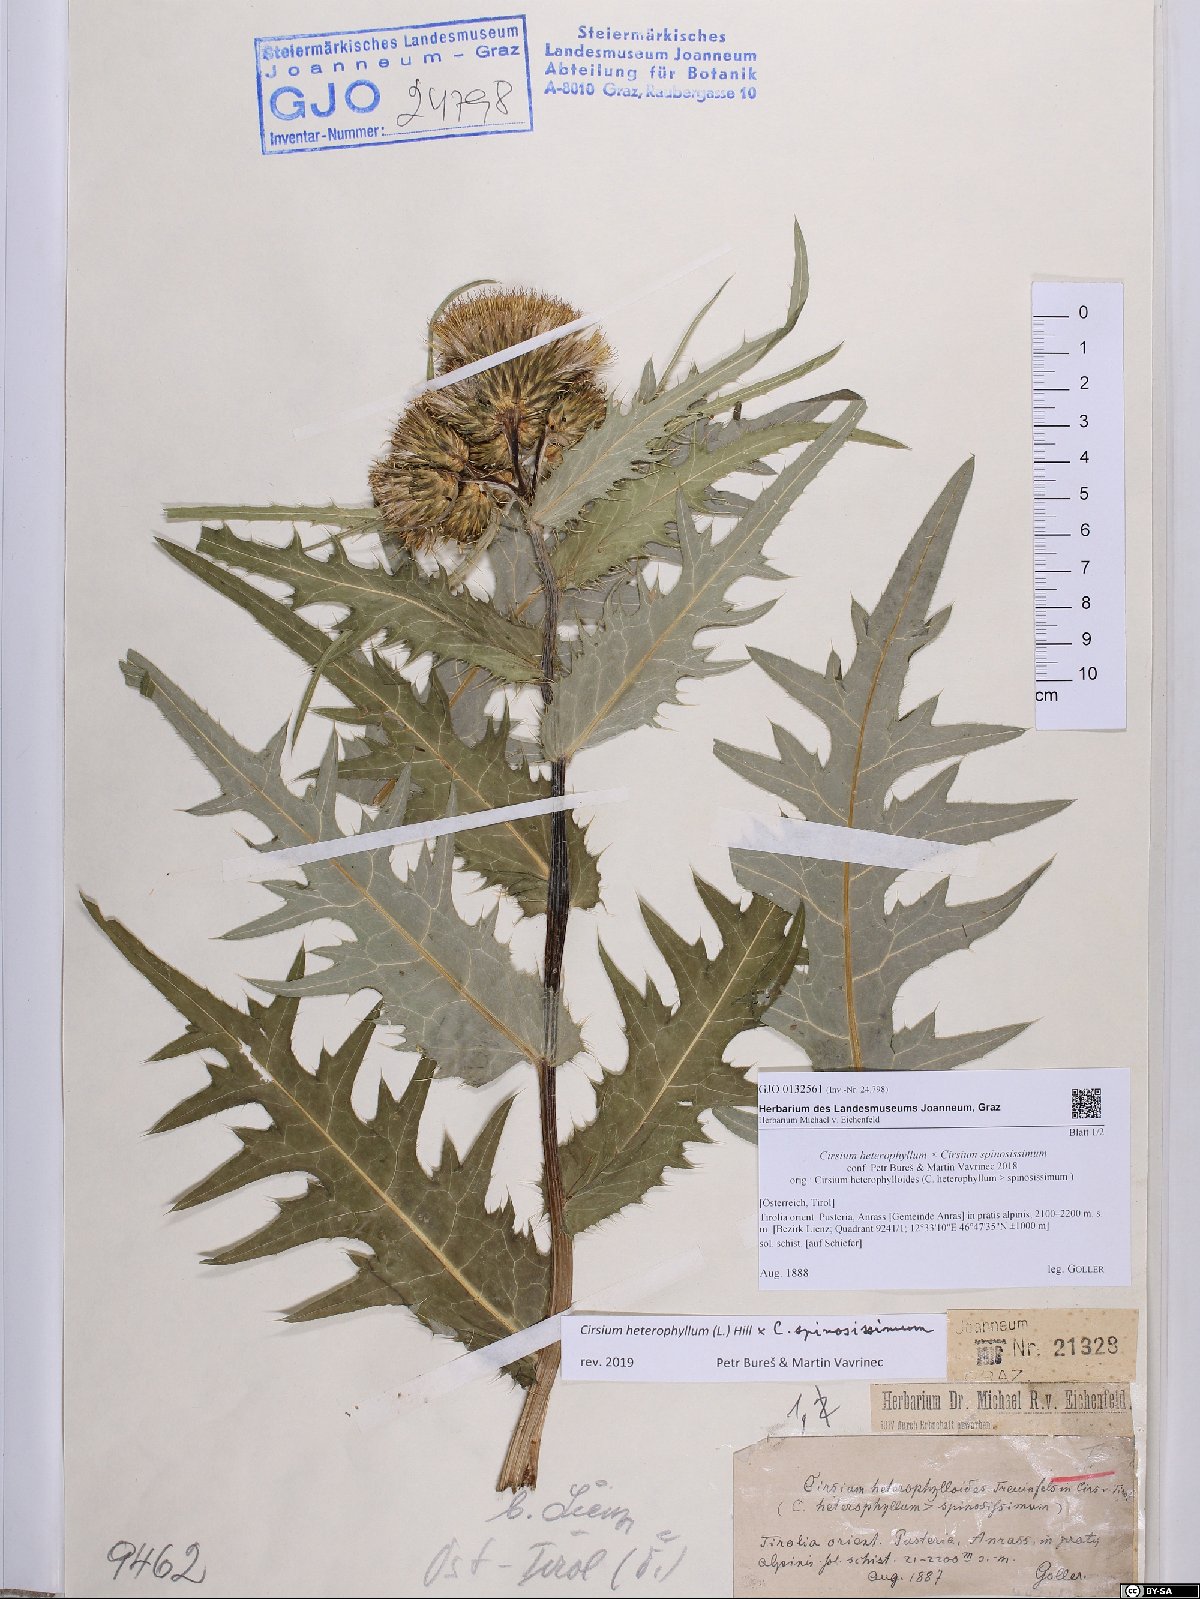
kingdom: Plantae
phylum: Tracheophyta
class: Magnoliopsida
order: Asterales
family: Asteraceae
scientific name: Asteraceae
